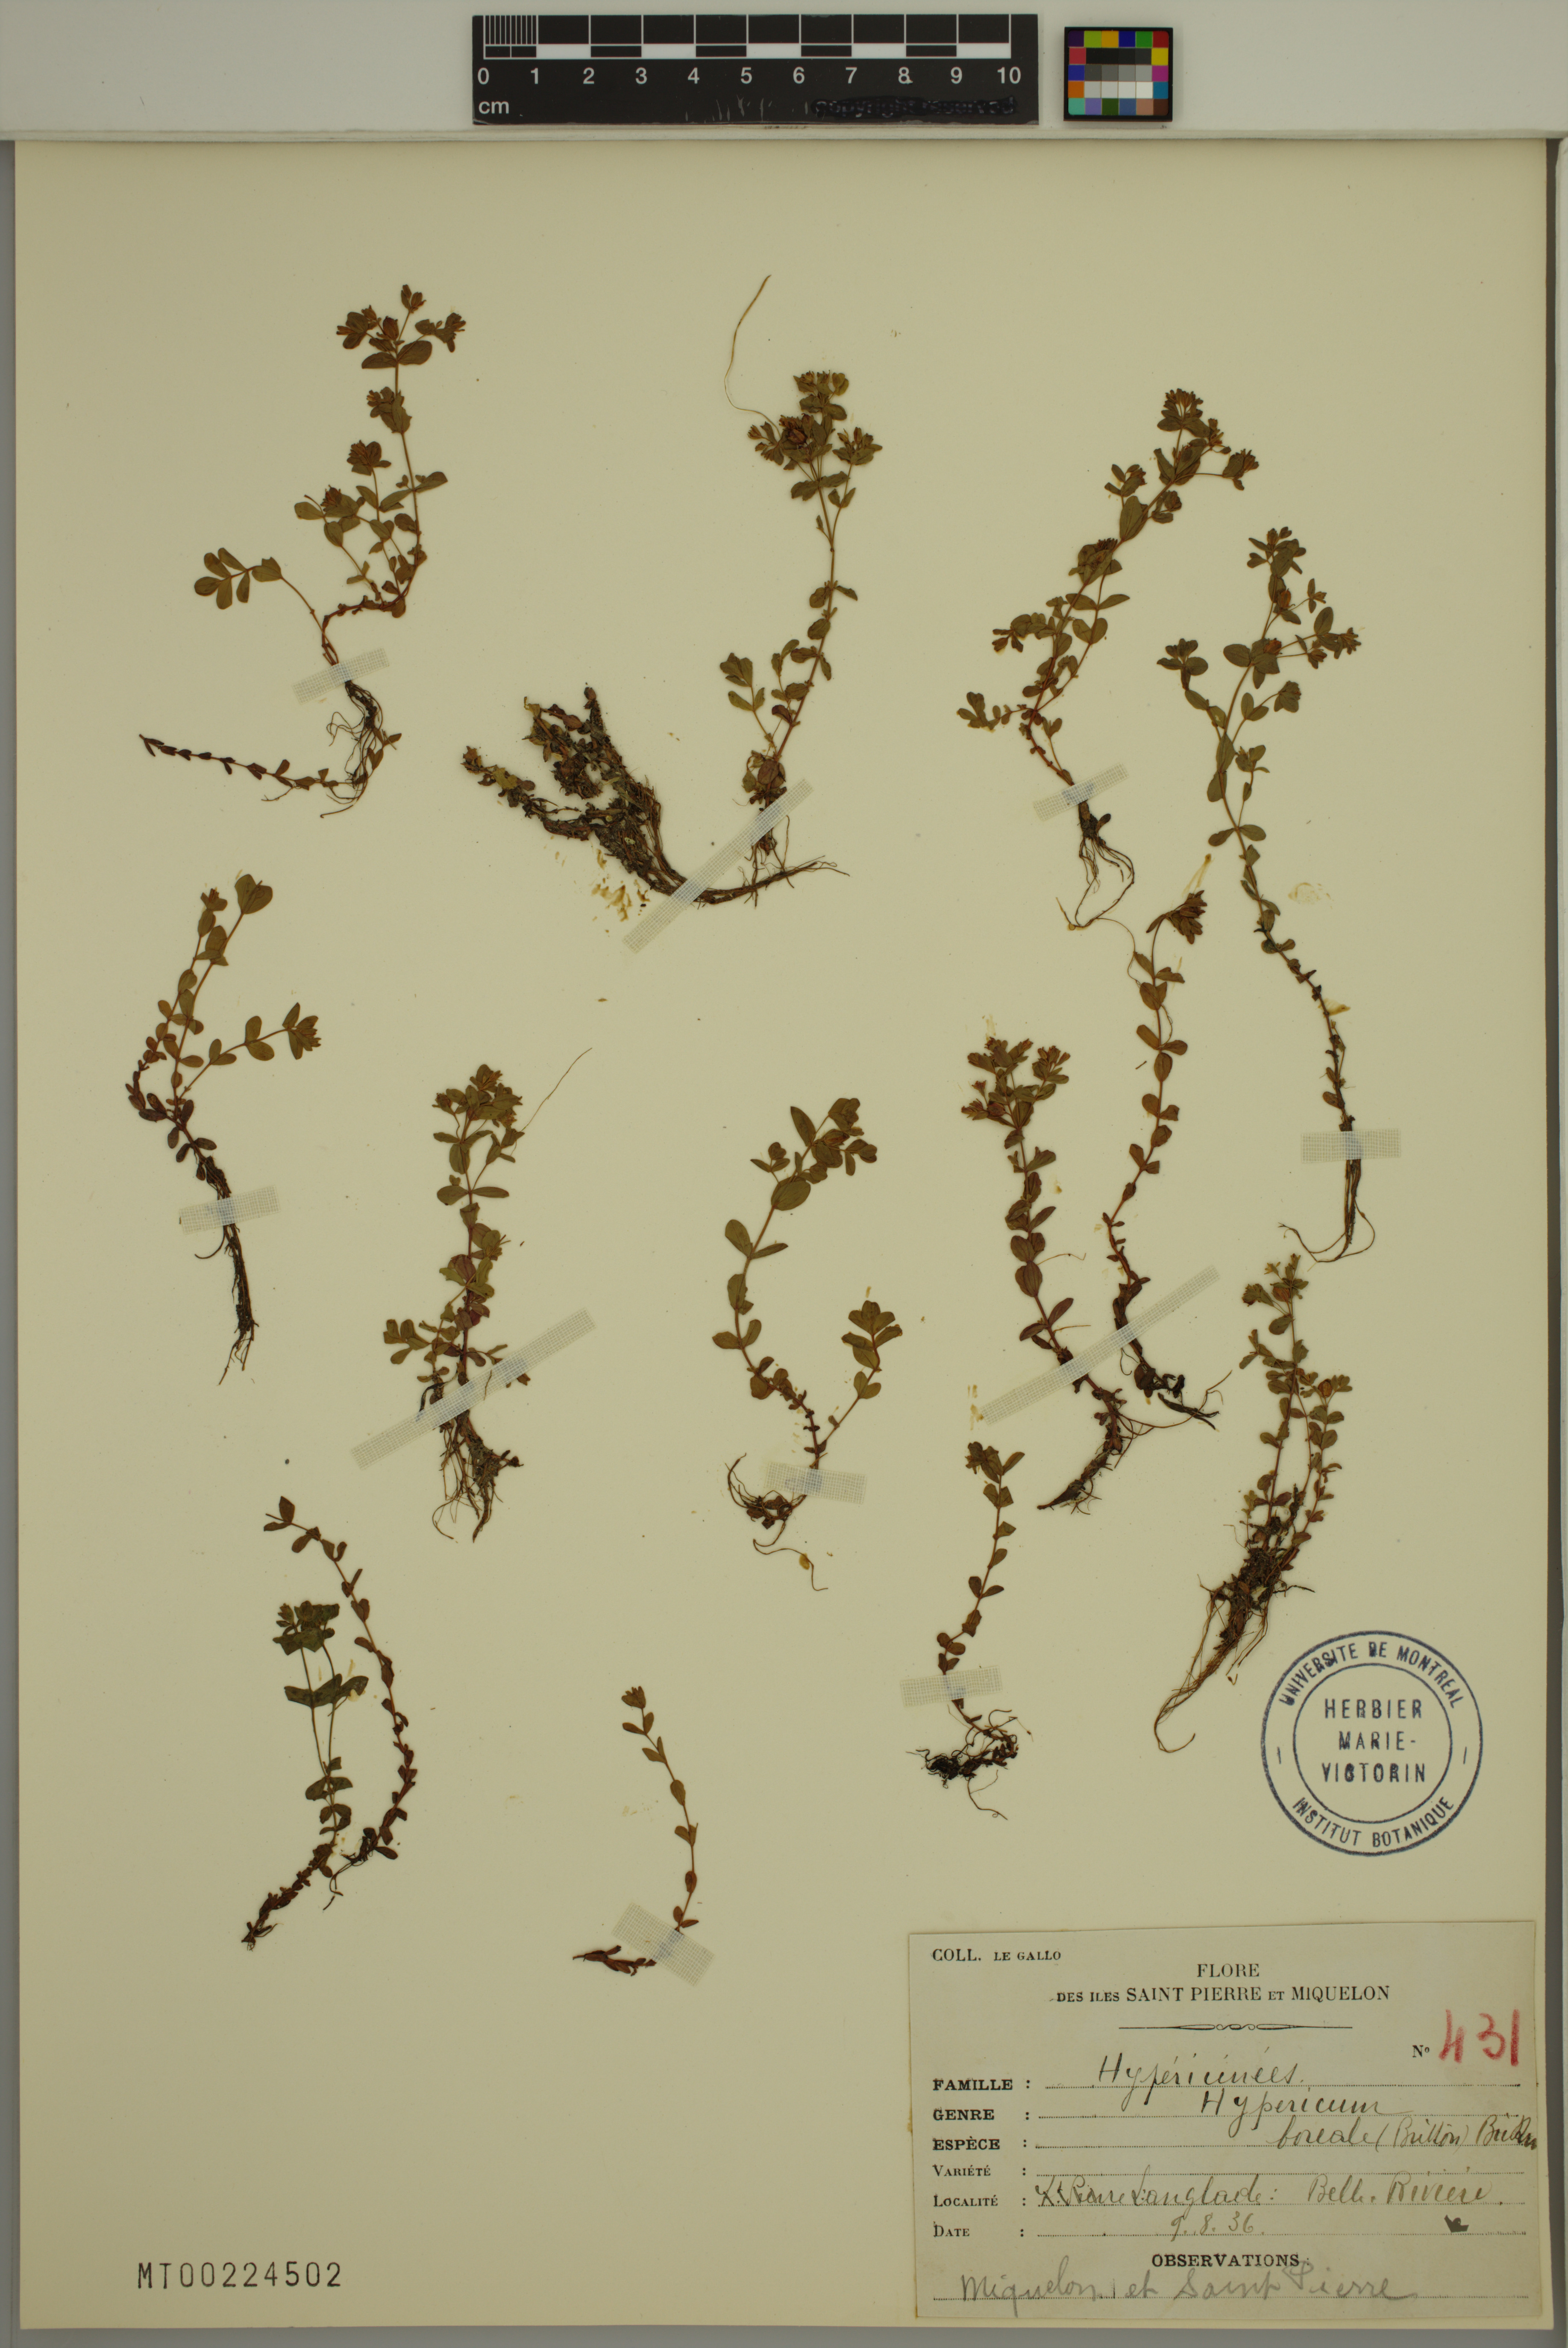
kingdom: Plantae
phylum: Tracheophyta
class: Magnoliopsida
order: Malpighiales
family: Hypericaceae
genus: Hypericum
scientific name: Hypericum boreale
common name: Northern bog st. john's-wort
